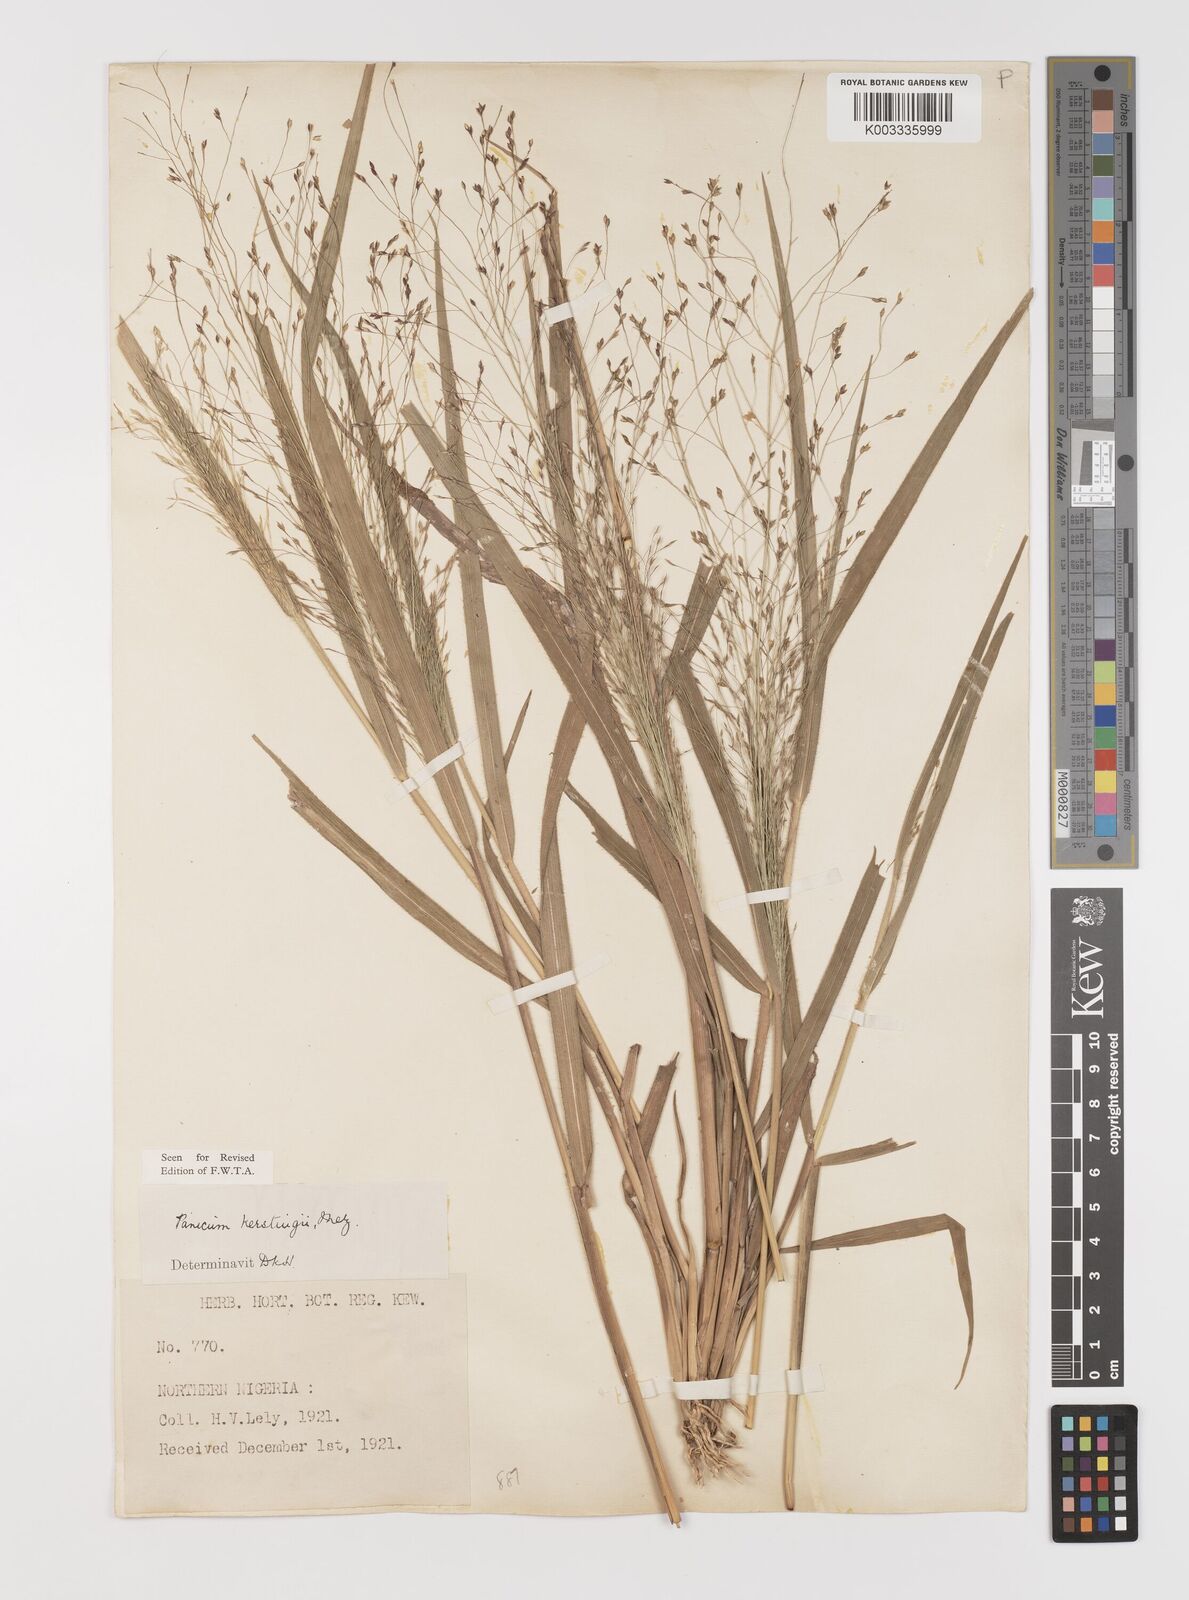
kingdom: Plantae
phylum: Tracheophyta
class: Liliopsida
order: Poales
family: Poaceae
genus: Panicum
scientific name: Panicum pansum
